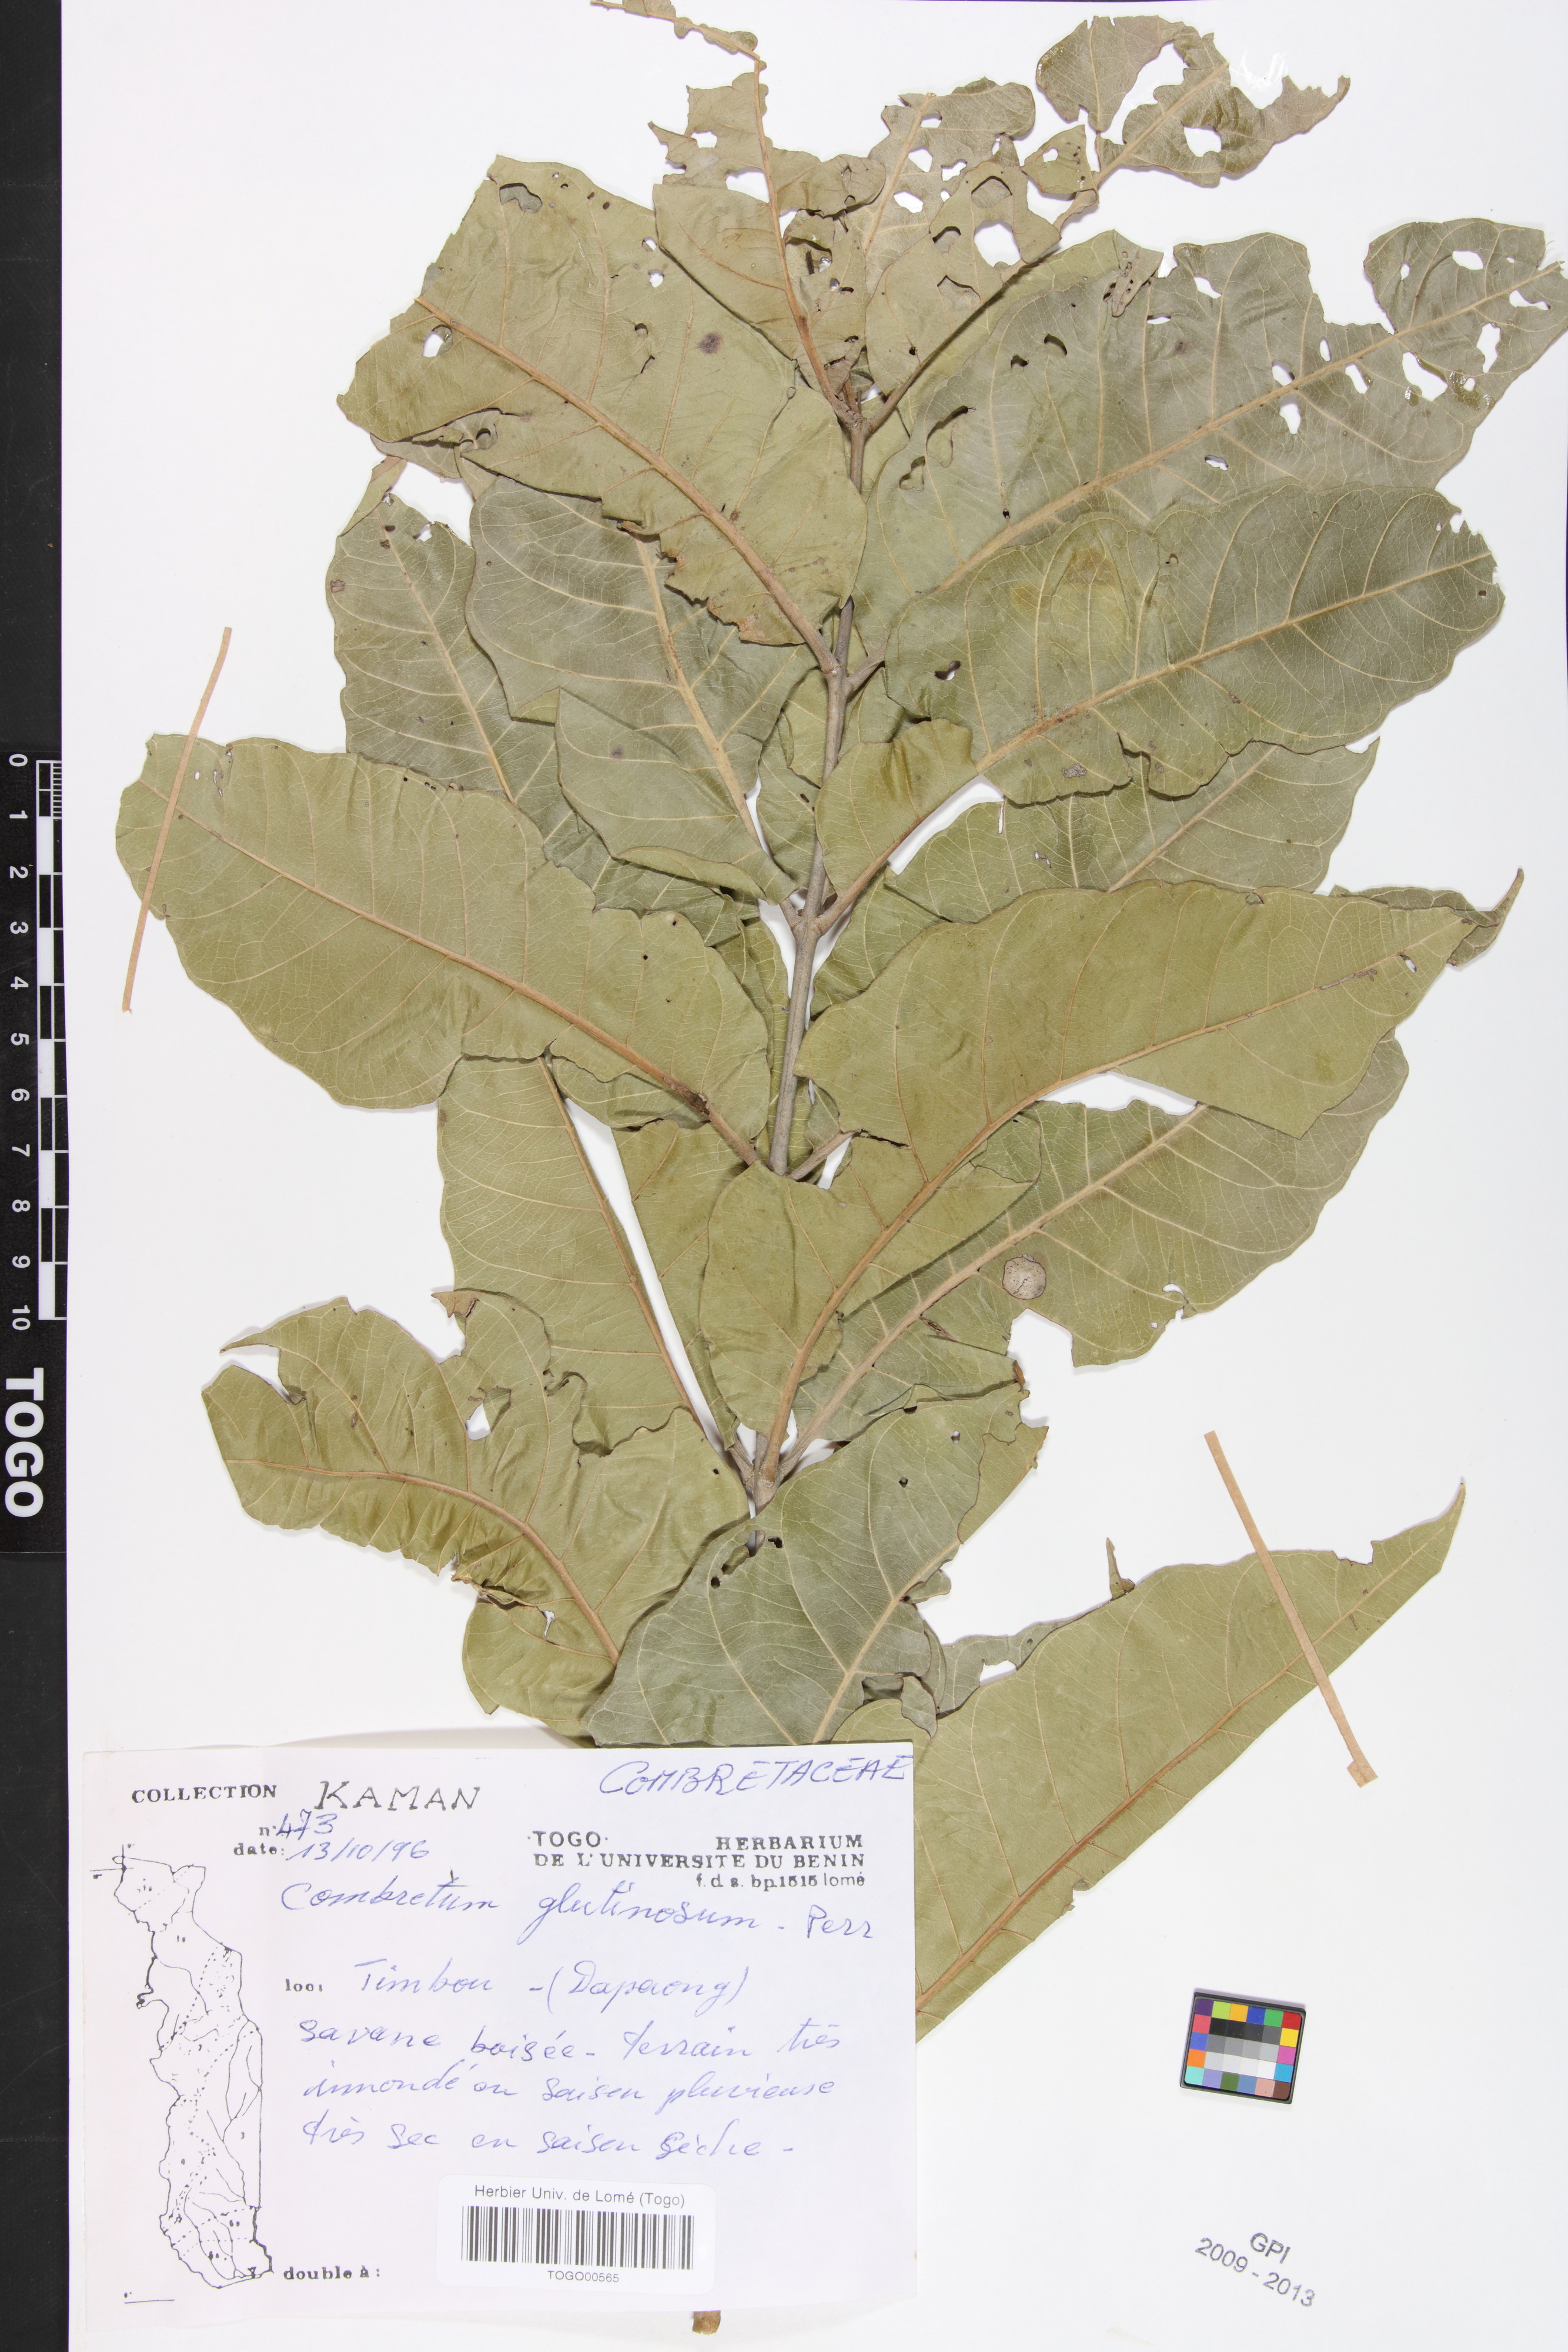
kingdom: Plantae
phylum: Tracheophyta
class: Magnoliopsida
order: Myrtales
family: Combretaceae
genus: Combretum
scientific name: Combretum glutinosum
